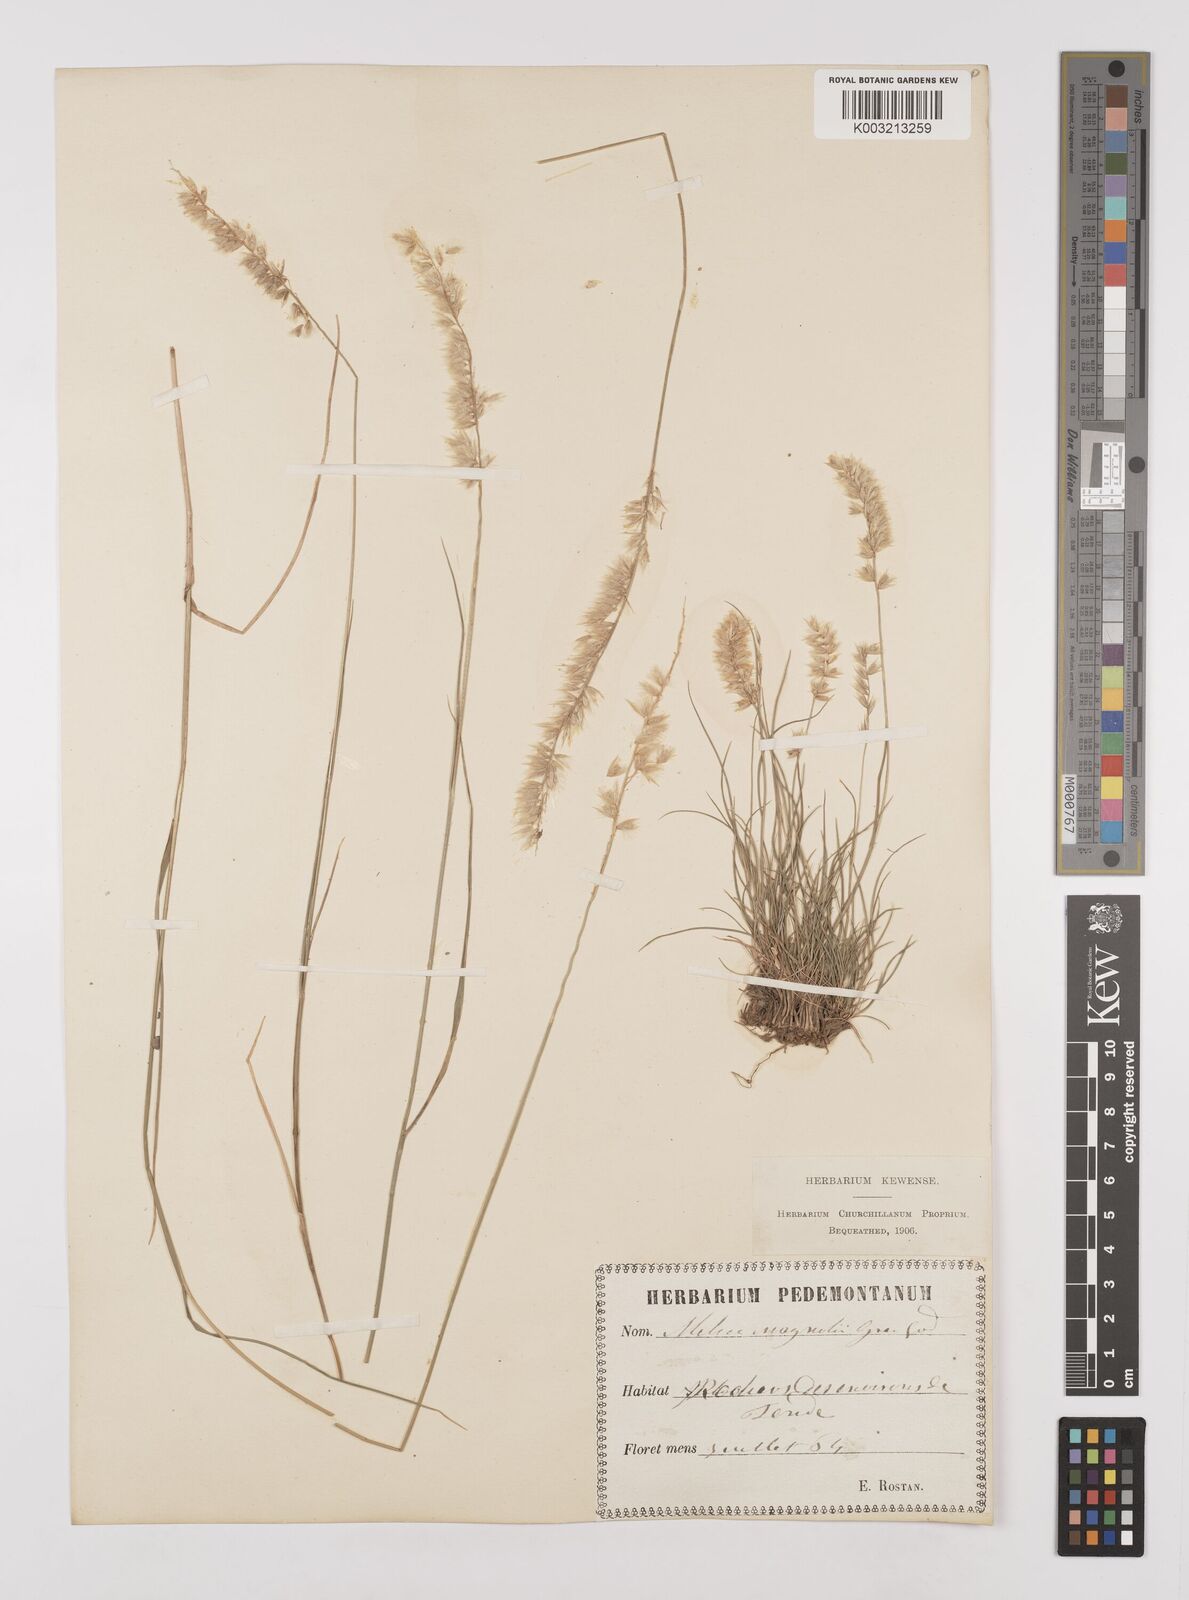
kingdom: Plantae
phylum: Tracheophyta
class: Liliopsida
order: Poales
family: Poaceae
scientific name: Poaceae
